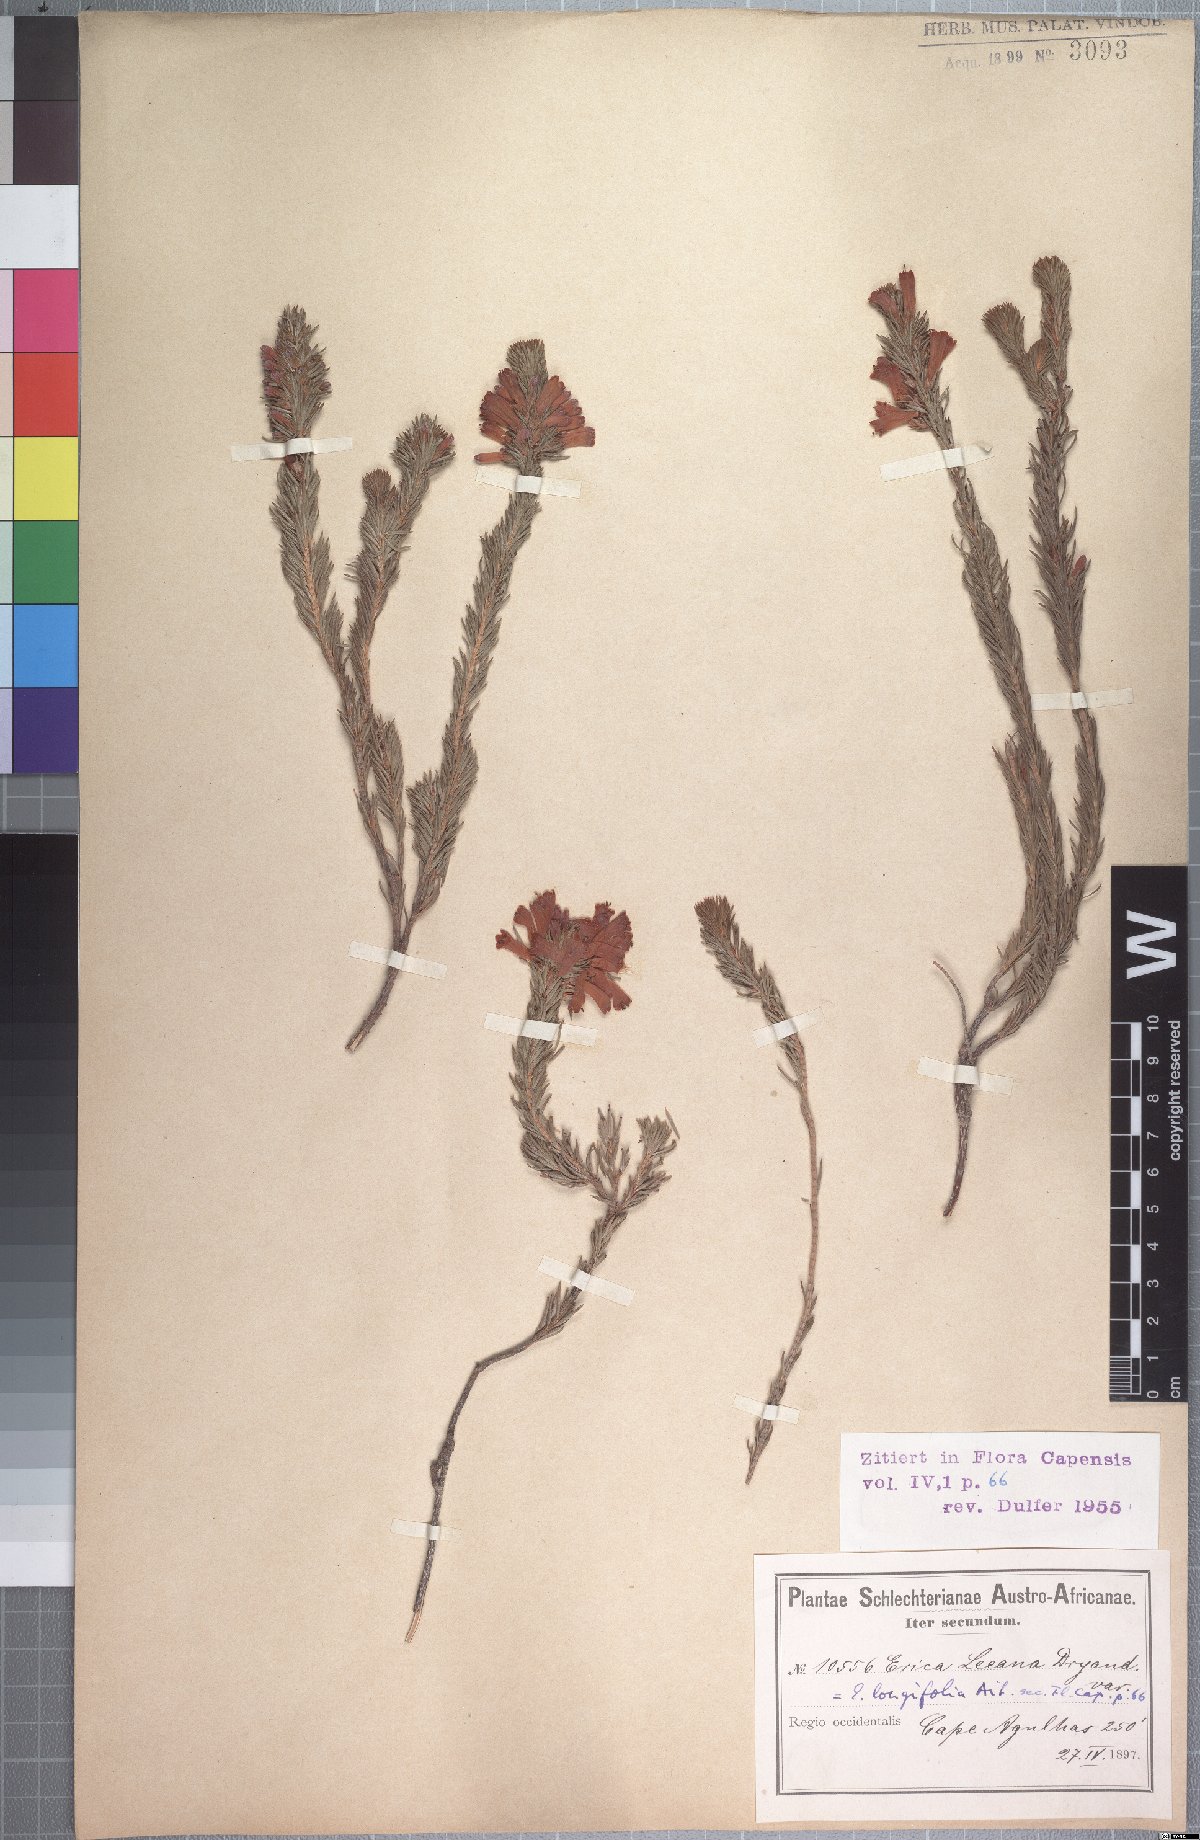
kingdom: Plantae
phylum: Tracheophyta
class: Magnoliopsida
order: Ericales
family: Ericaceae
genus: Erica
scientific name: Erica vestita
